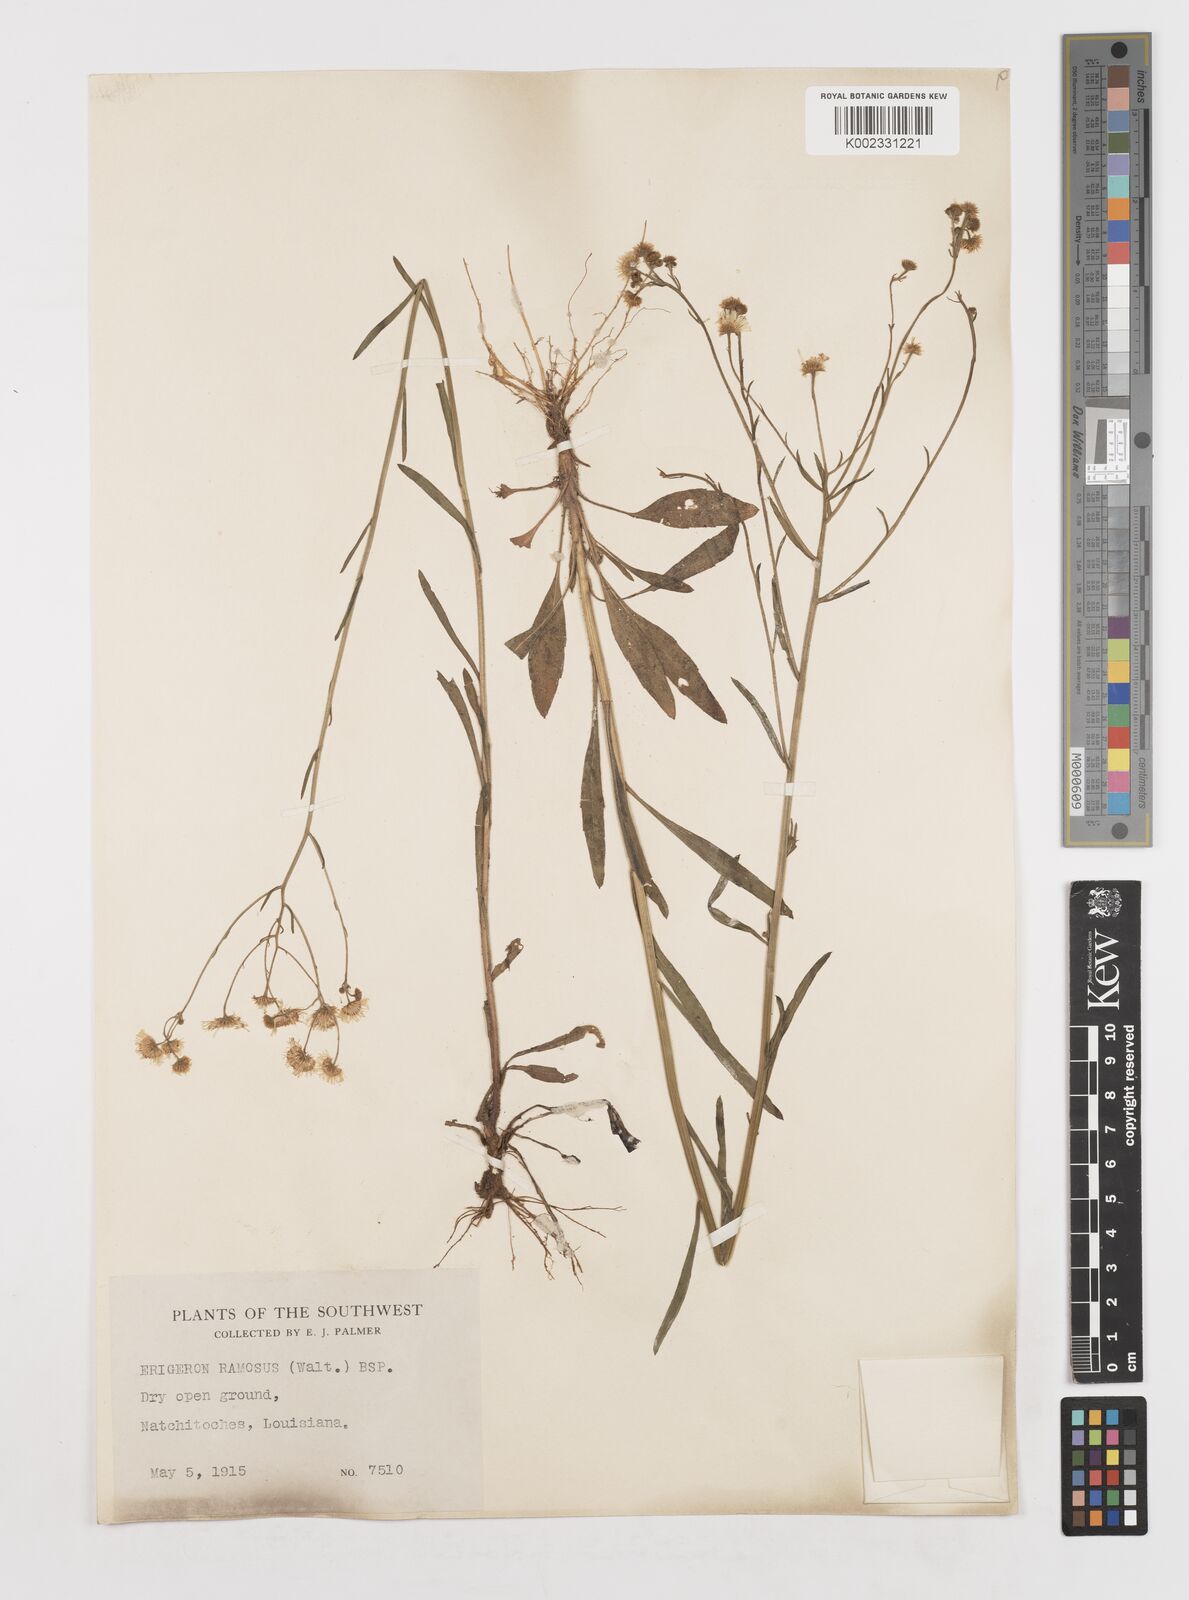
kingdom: Plantae
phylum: Tracheophyta
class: Magnoliopsida
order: Asterales
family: Asteraceae
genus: Erigeron
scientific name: Erigeron strigosus
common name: Common eastern fleabane
